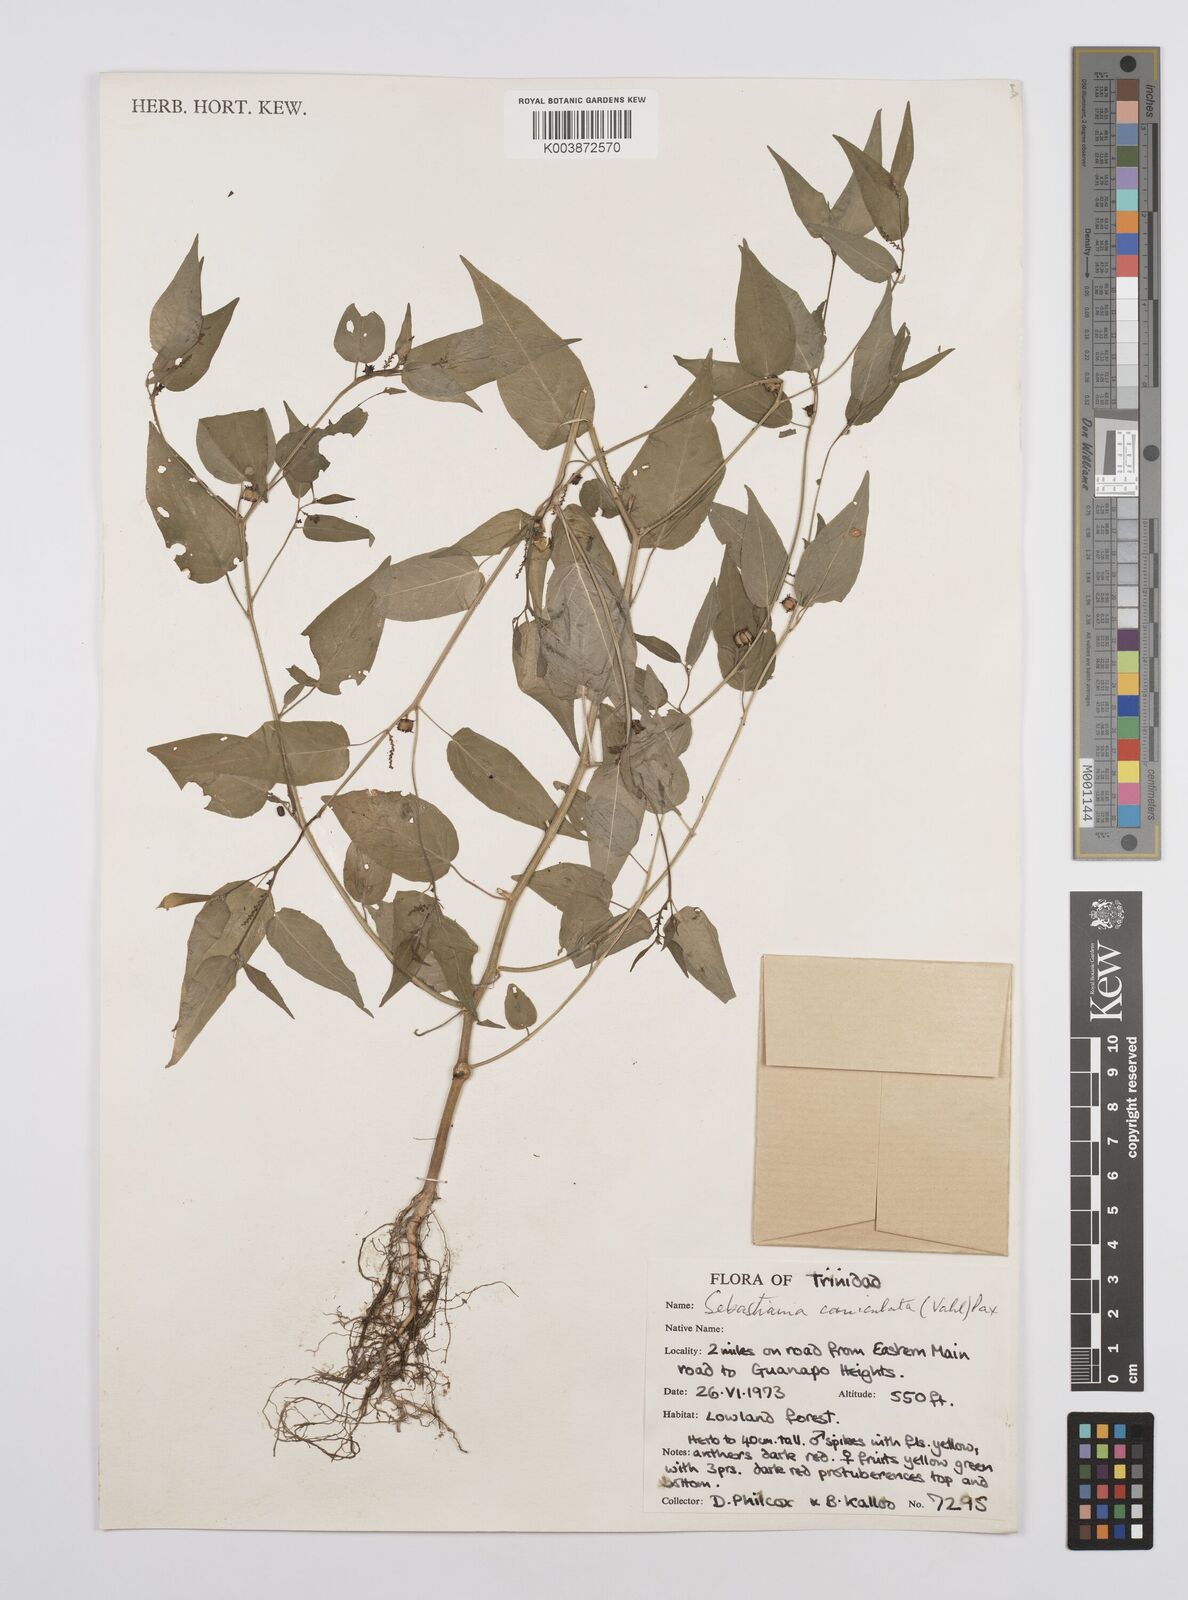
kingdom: Plantae
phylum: Tracheophyta
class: Magnoliopsida
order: Malpighiales
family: Euphorbiaceae
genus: Microstachys
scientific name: Microstachys corniculata
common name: Hato tejas
